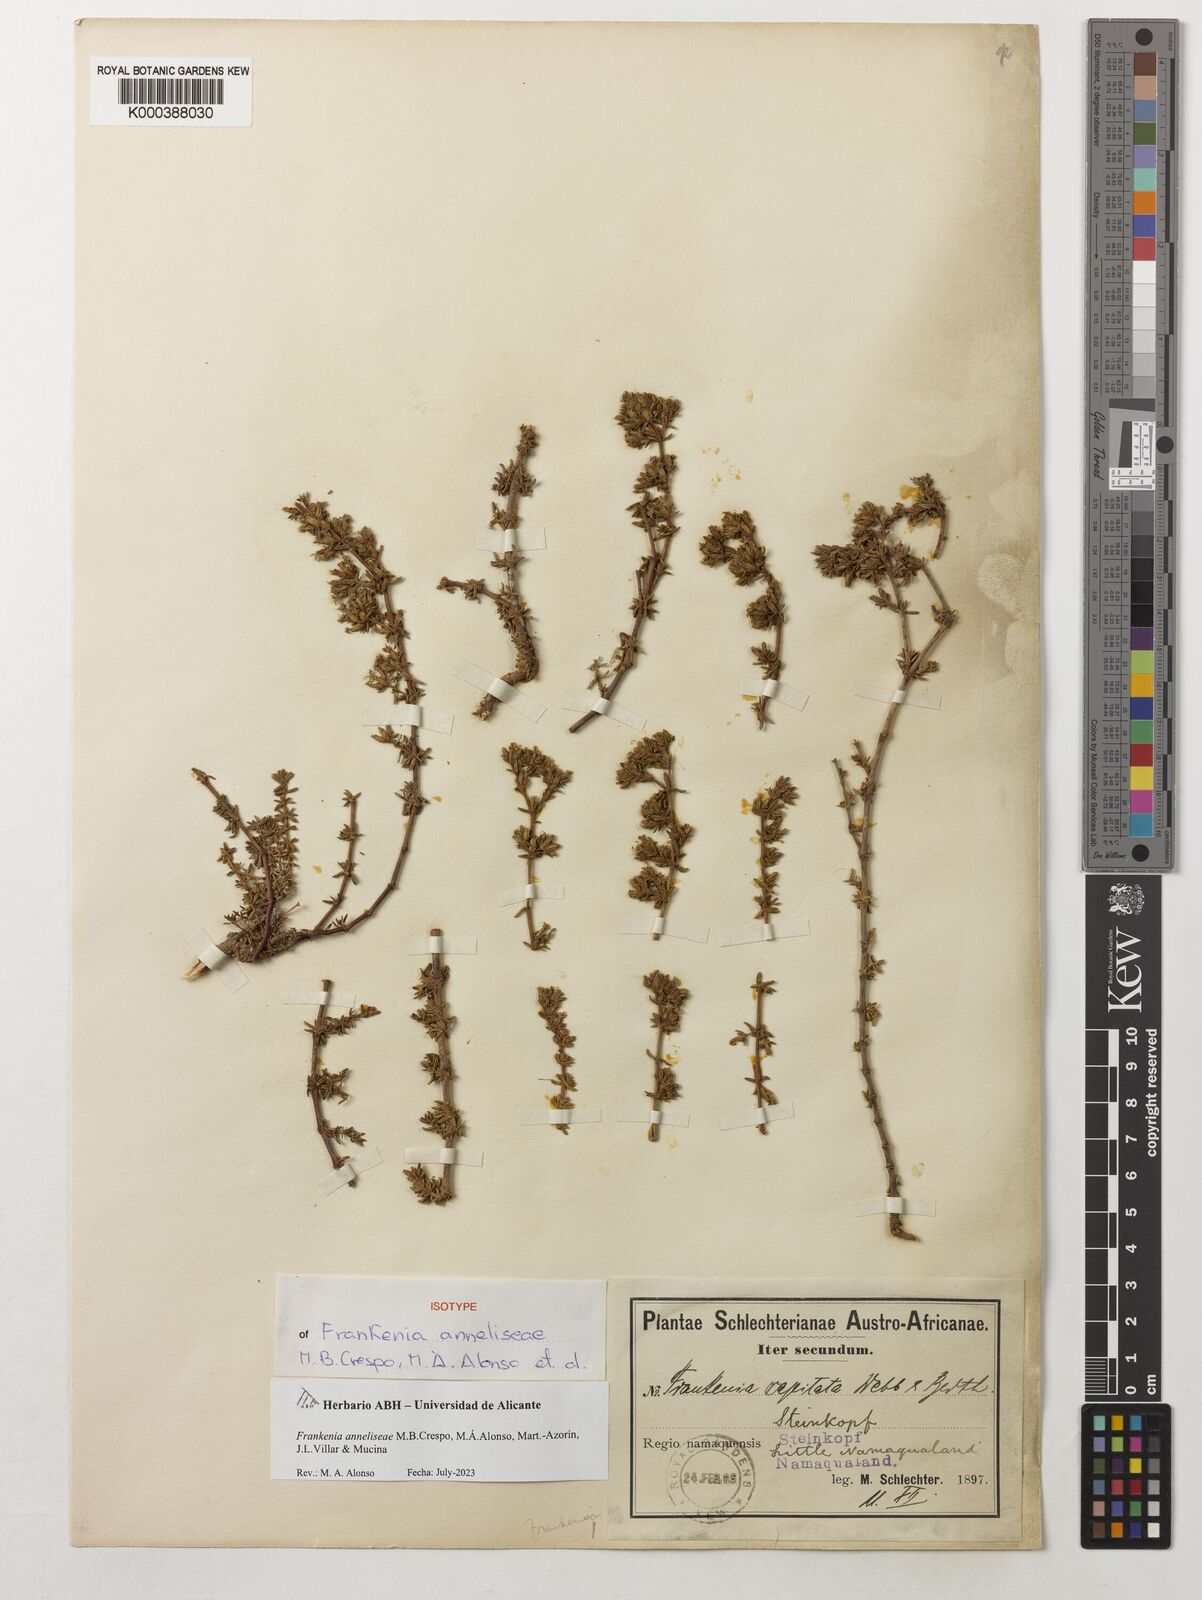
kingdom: Plantae
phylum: Tracheophyta
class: Magnoliopsida
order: Gentianales
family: Rubiaceae
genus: Crucianella
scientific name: Crucianella arabica
